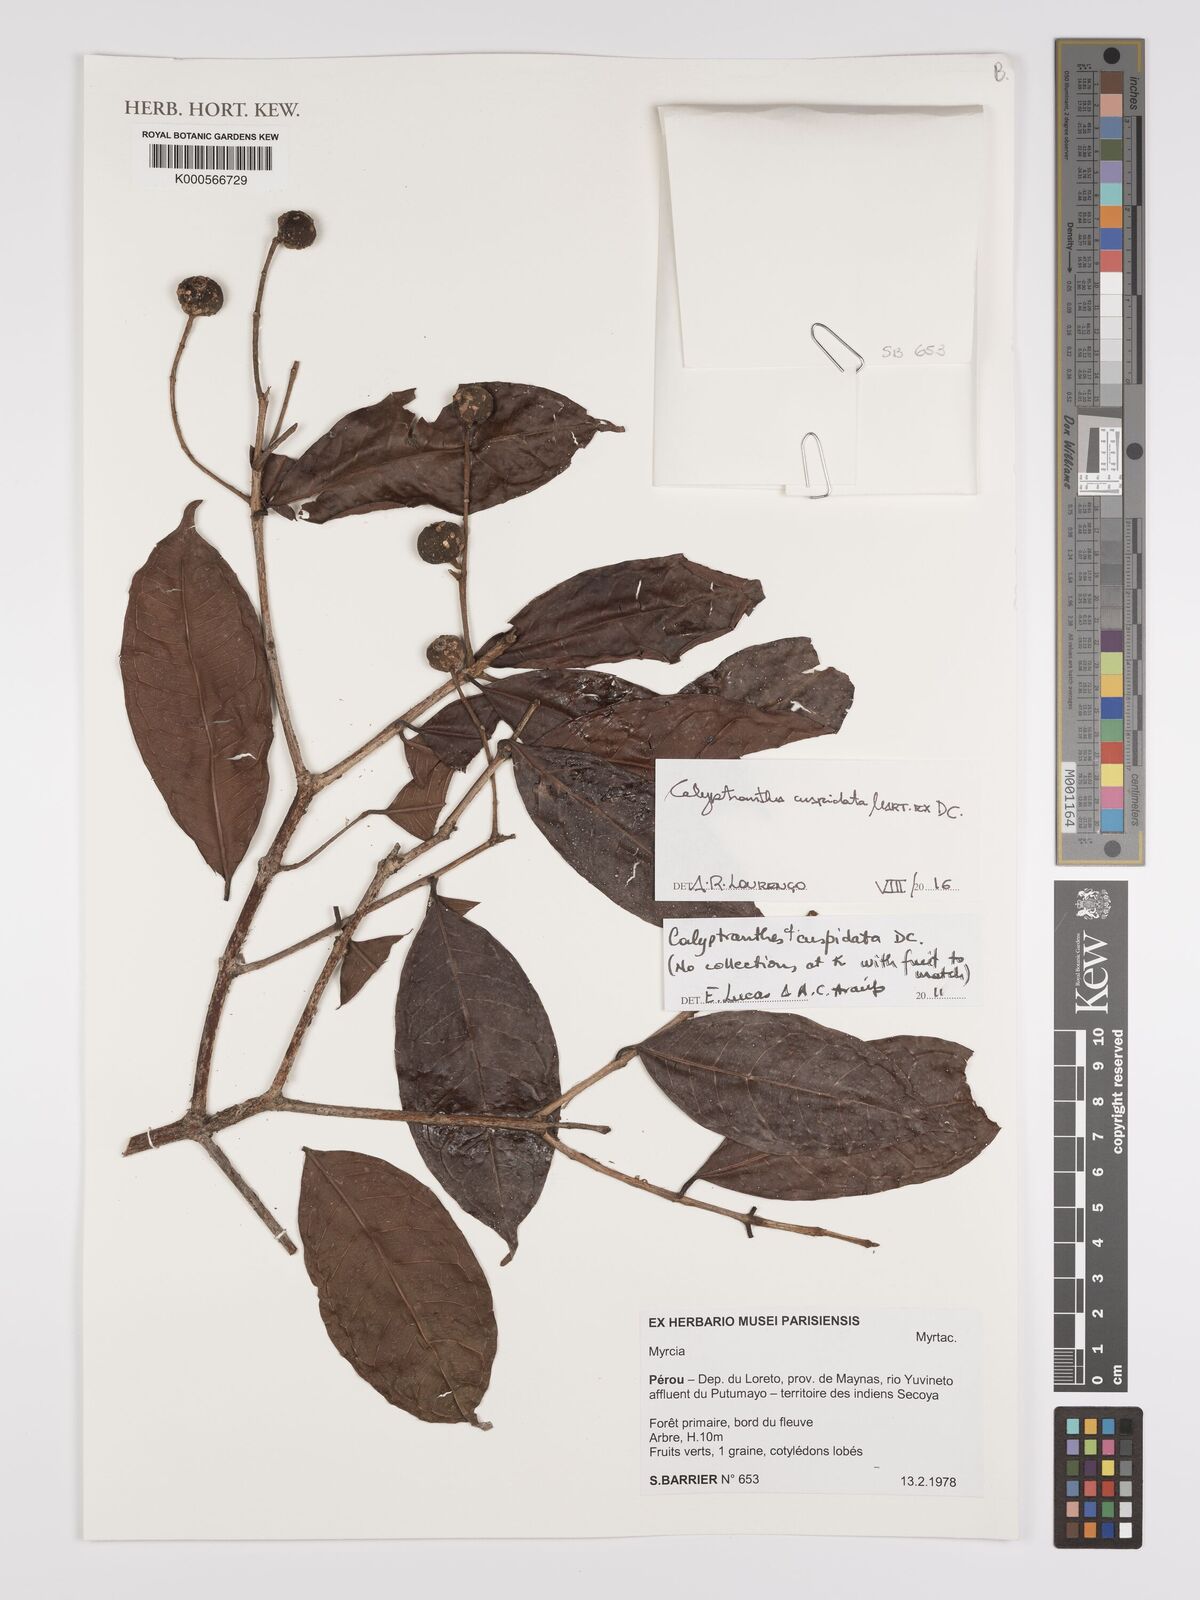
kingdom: Plantae
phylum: Tracheophyta
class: Magnoliopsida
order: Myrtales
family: Myrtaceae
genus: Myrcia
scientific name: Myrcia cuspidata
